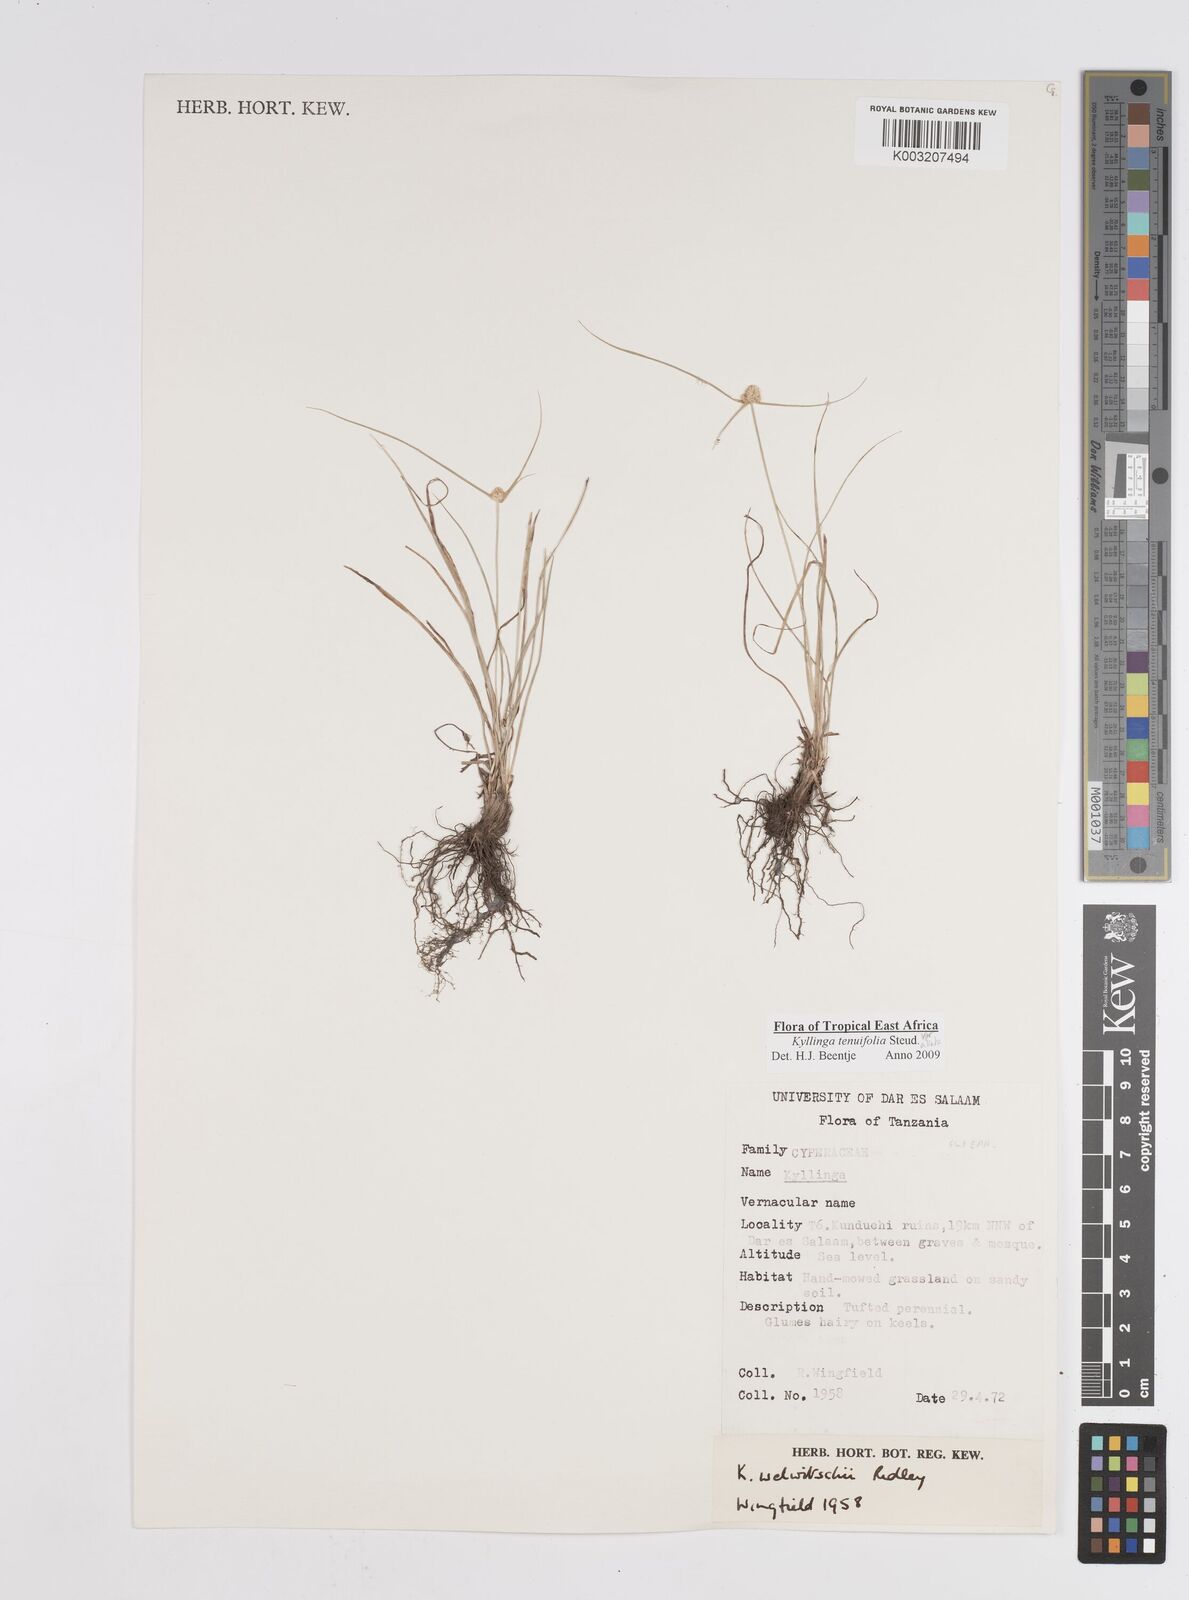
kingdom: Plantae
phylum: Tracheophyta
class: Liliopsida
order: Poales
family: Cyperaceae
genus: Cyperus
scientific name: Cyperus
